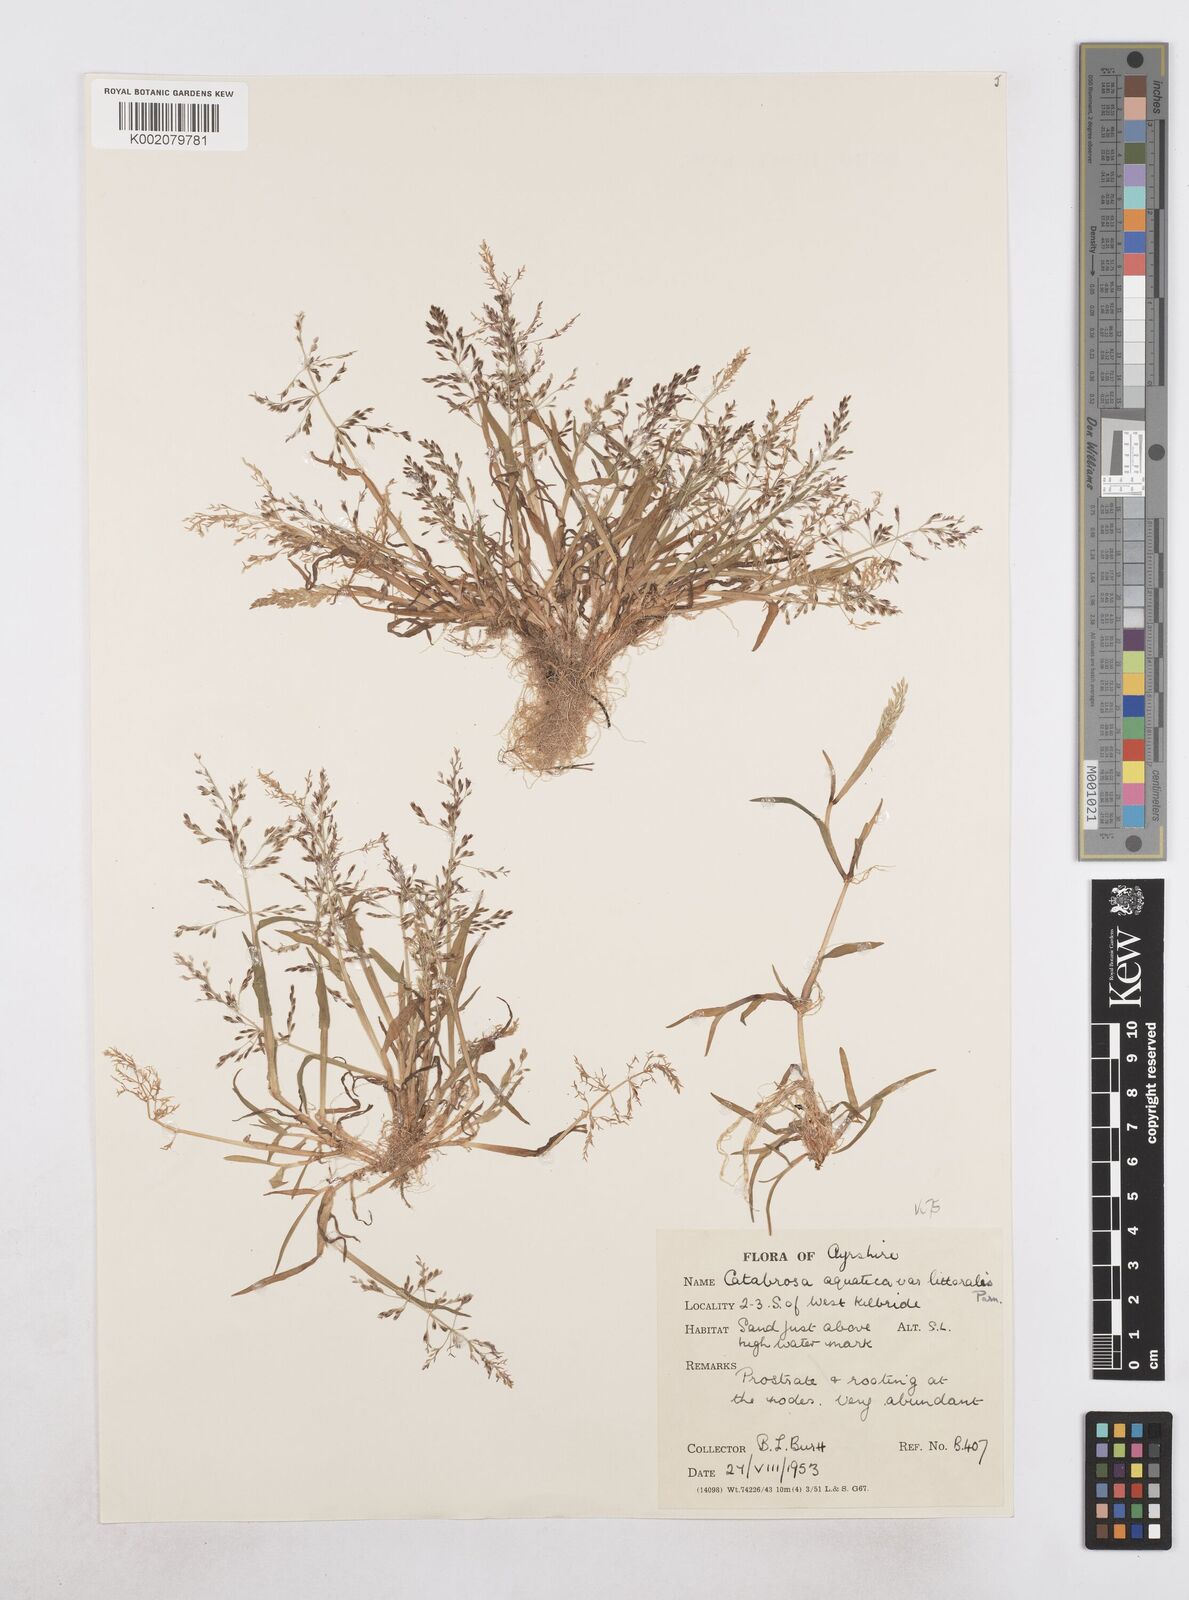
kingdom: Plantae
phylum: Tracheophyta
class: Liliopsida
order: Poales
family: Poaceae
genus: Catabrosa
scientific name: Catabrosa aquatica
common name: Whorl-grass
